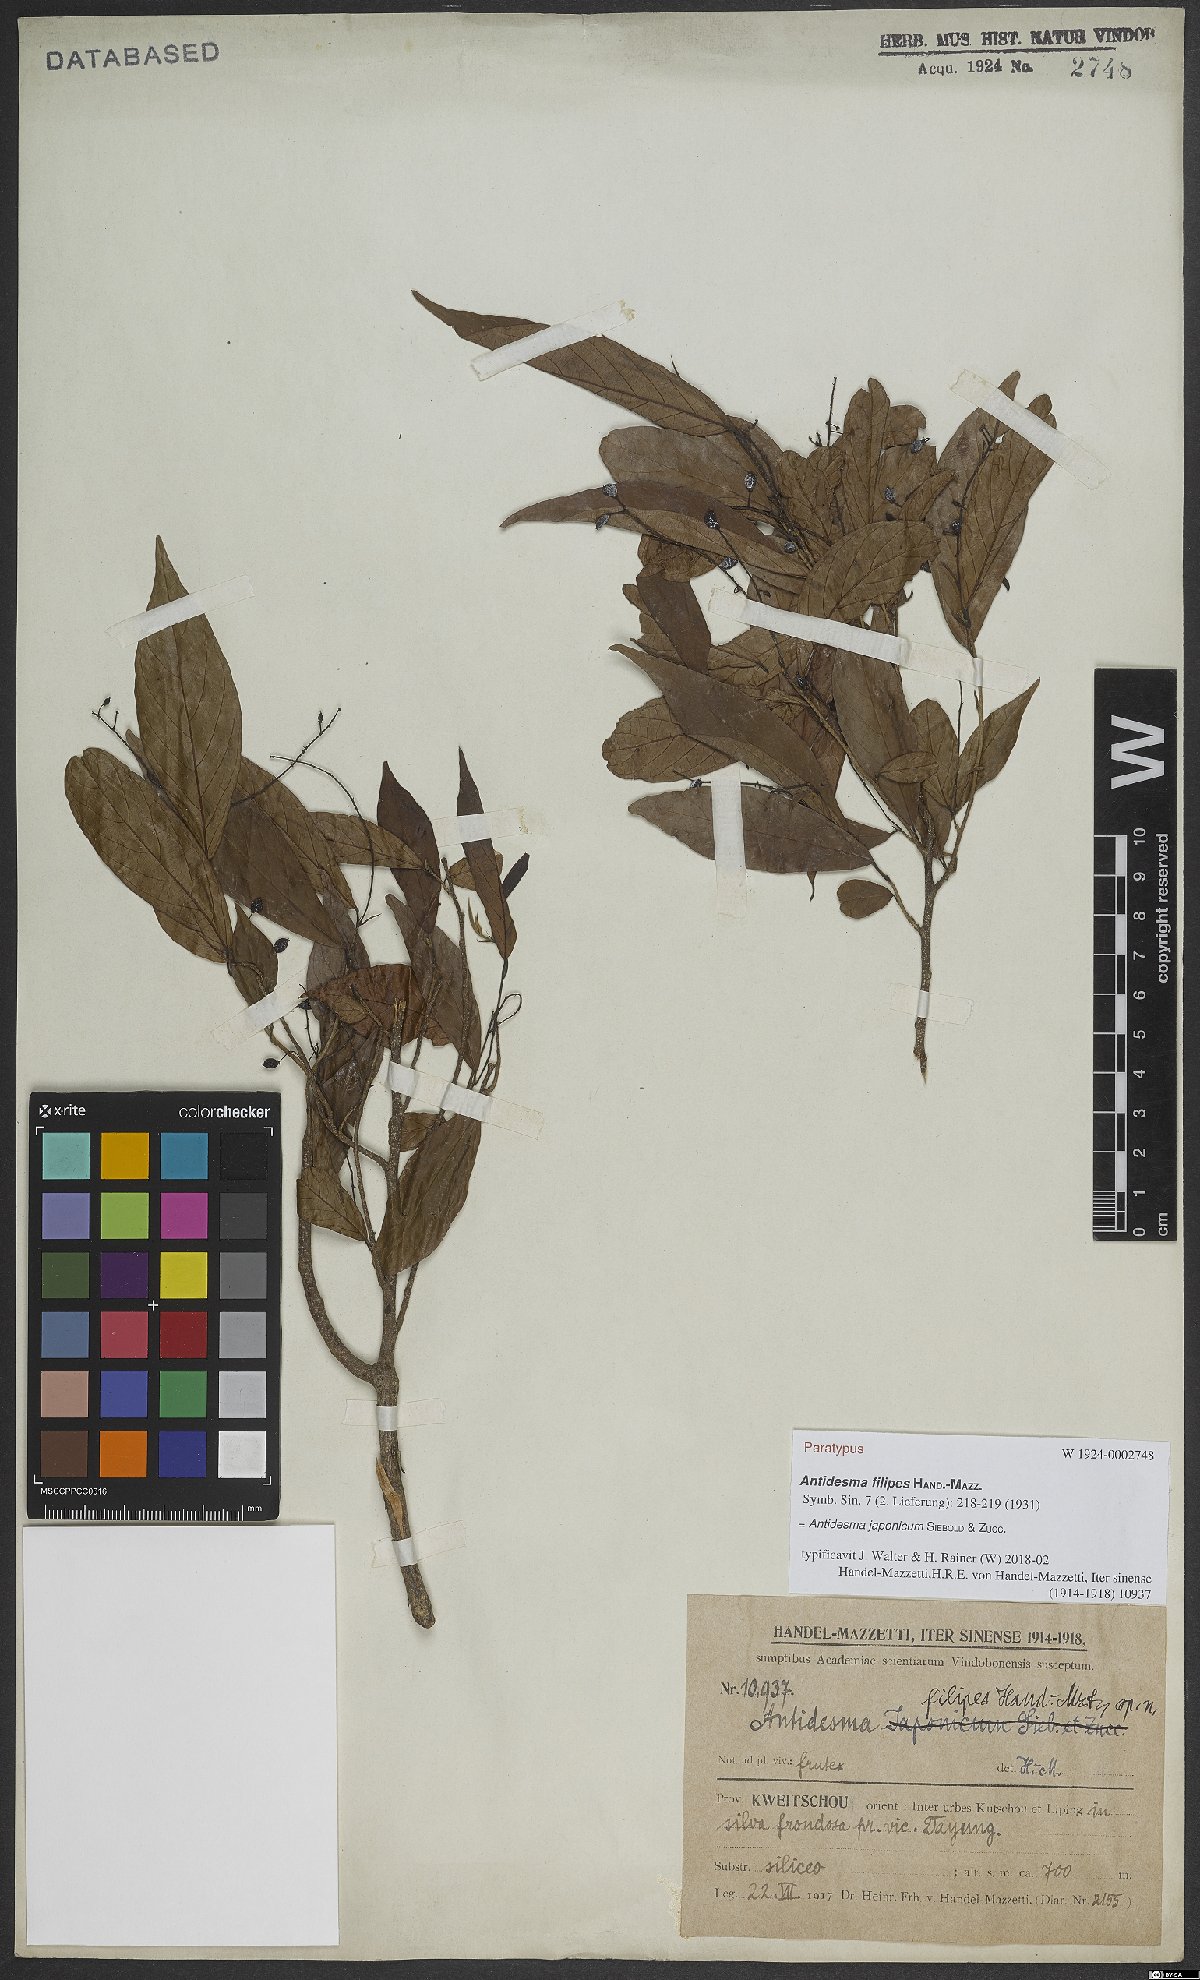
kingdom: Plantae
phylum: Tracheophyta
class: Magnoliopsida
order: Malpighiales
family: Phyllanthaceae
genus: Antidesma
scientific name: Antidesma japonicum
